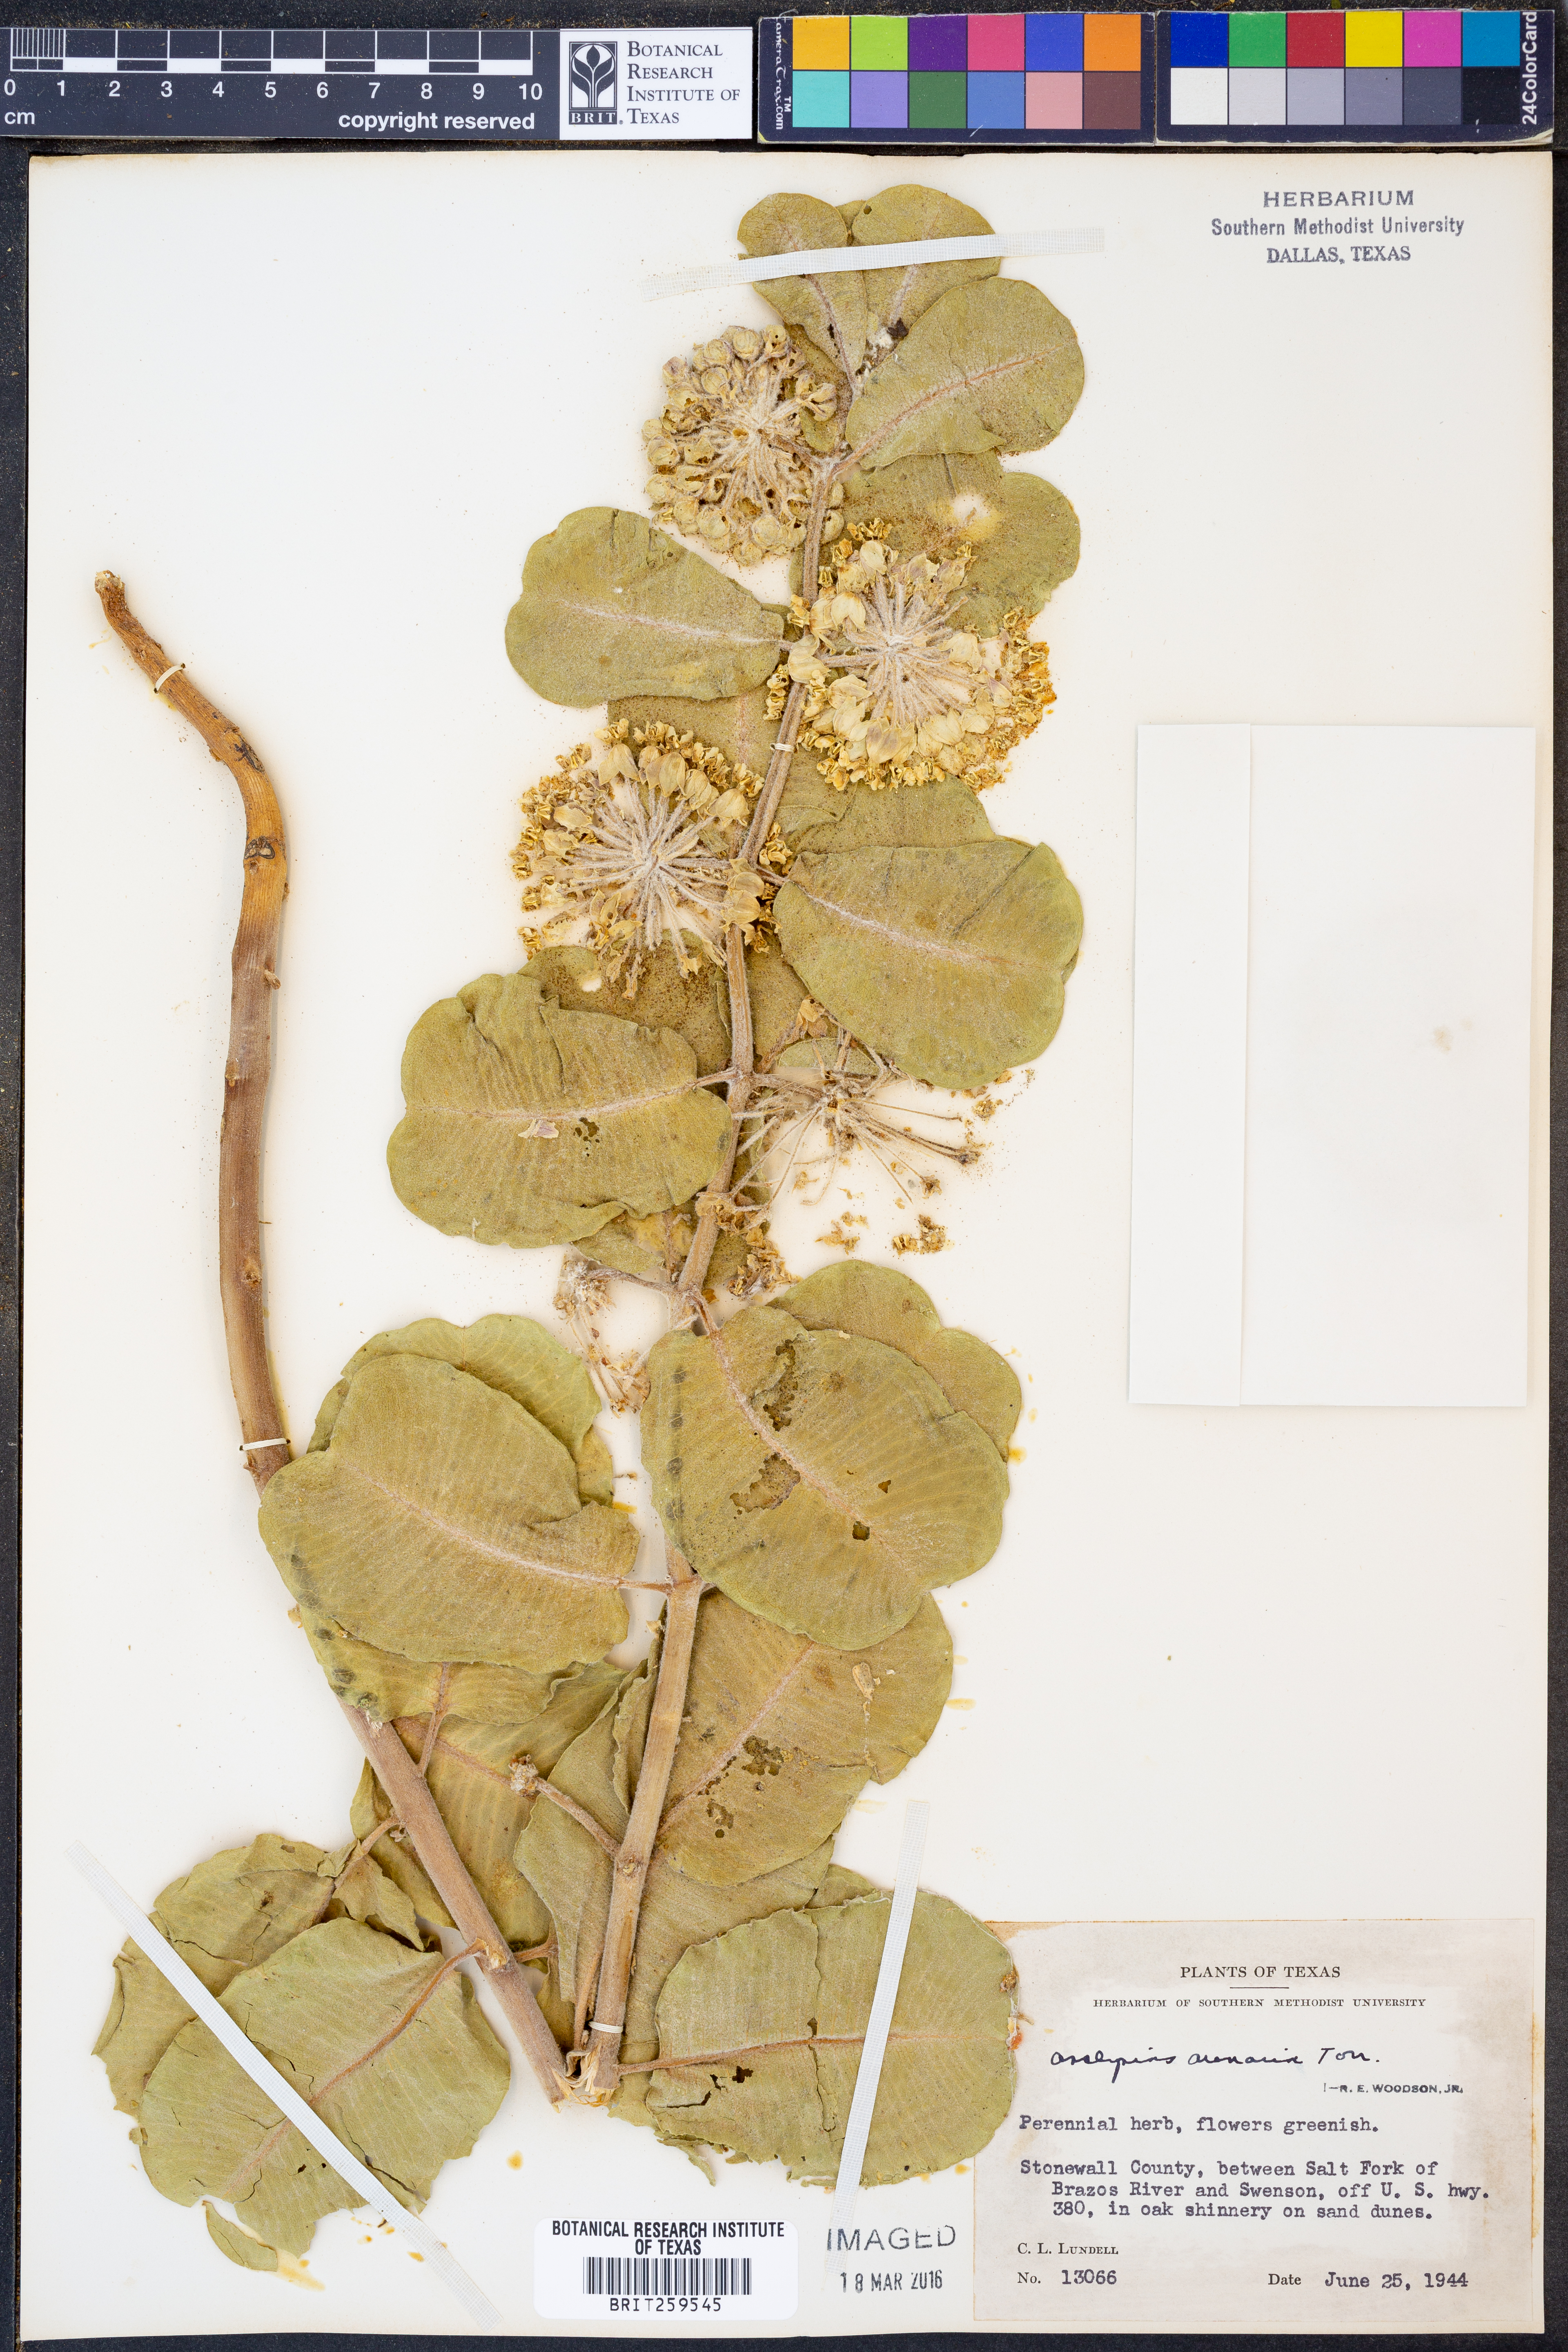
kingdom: Plantae
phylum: Tracheophyta
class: Magnoliopsida
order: Gentianales
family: Apocynaceae
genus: Asclepias
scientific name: Asclepias arenaria
